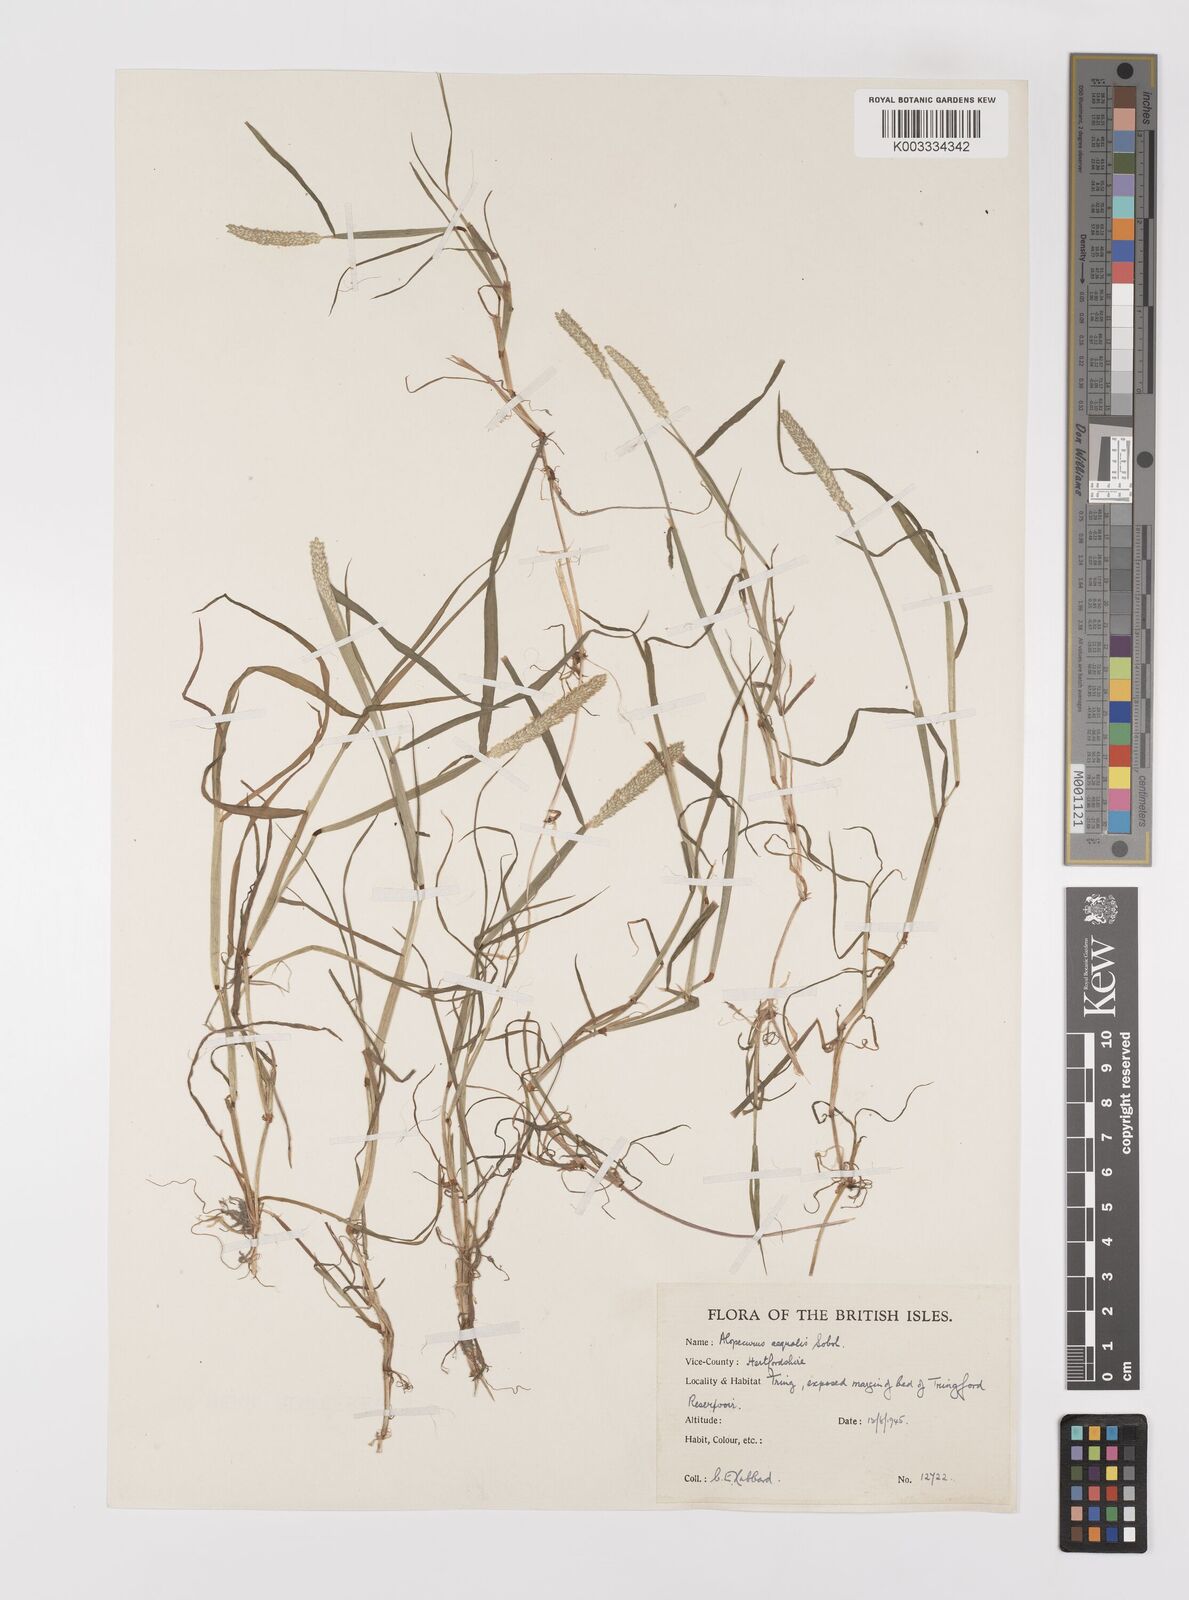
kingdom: Plantae
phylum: Tracheophyta
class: Liliopsida
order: Poales
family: Poaceae
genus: Alopecurus
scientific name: Alopecurus aequalis
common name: Orange foxtail
